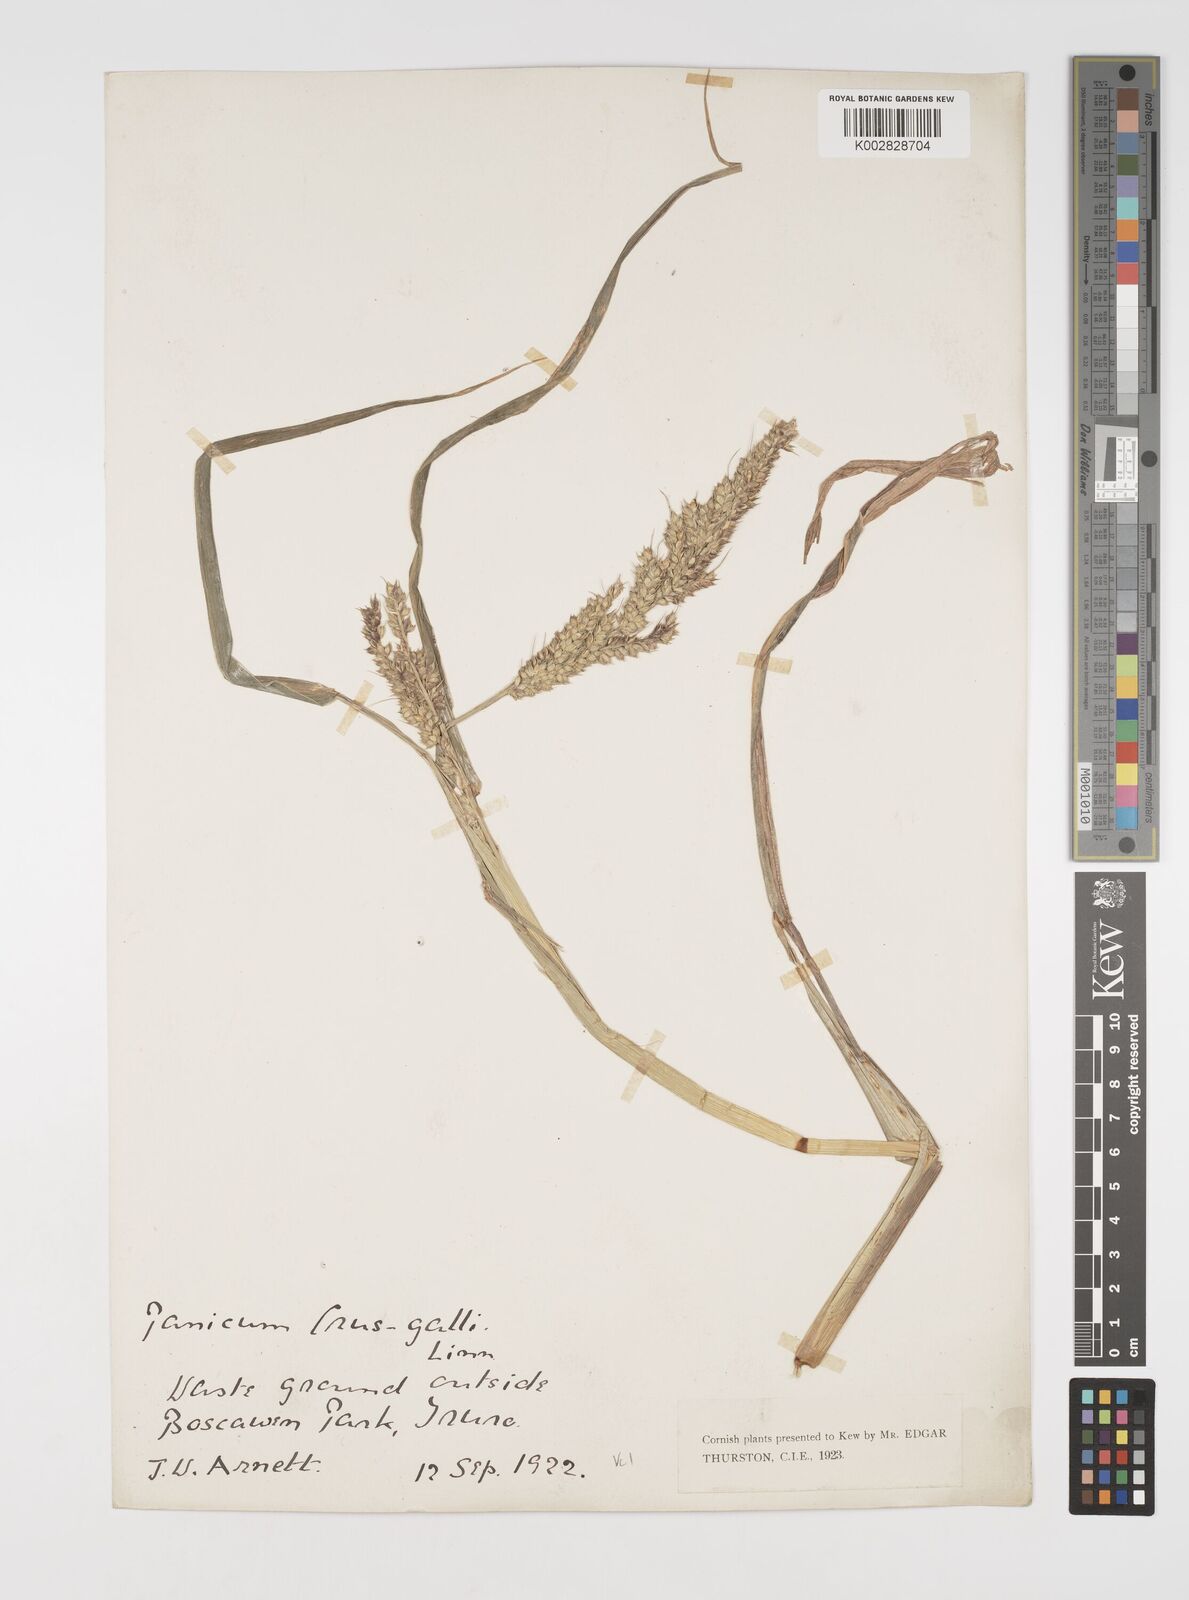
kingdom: Plantae
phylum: Tracheophyta
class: Liliopsida
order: Poales
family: Poaceae
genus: Echinochloa
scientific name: Echinochloa crus-galli
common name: Cockspur
